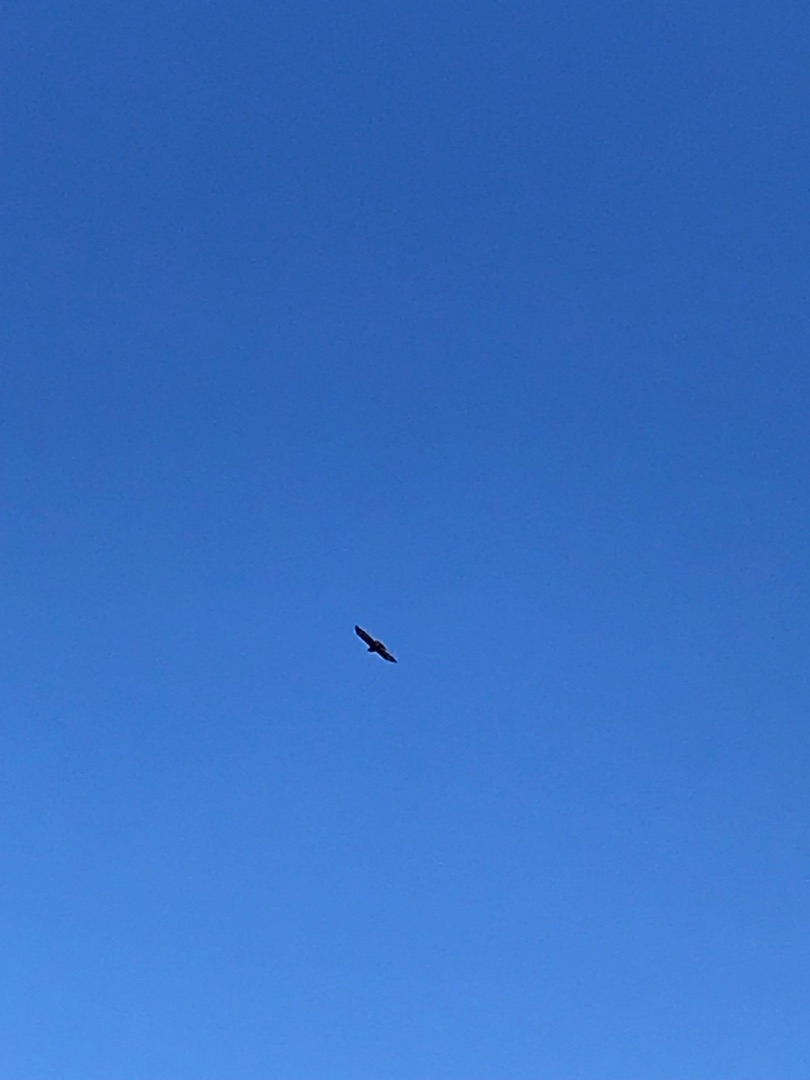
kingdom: Animalia
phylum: Chordata
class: Aves
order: Accipitriformes
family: Accipitridae
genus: Buteo
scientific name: Buteo buteo
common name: Musvåge
